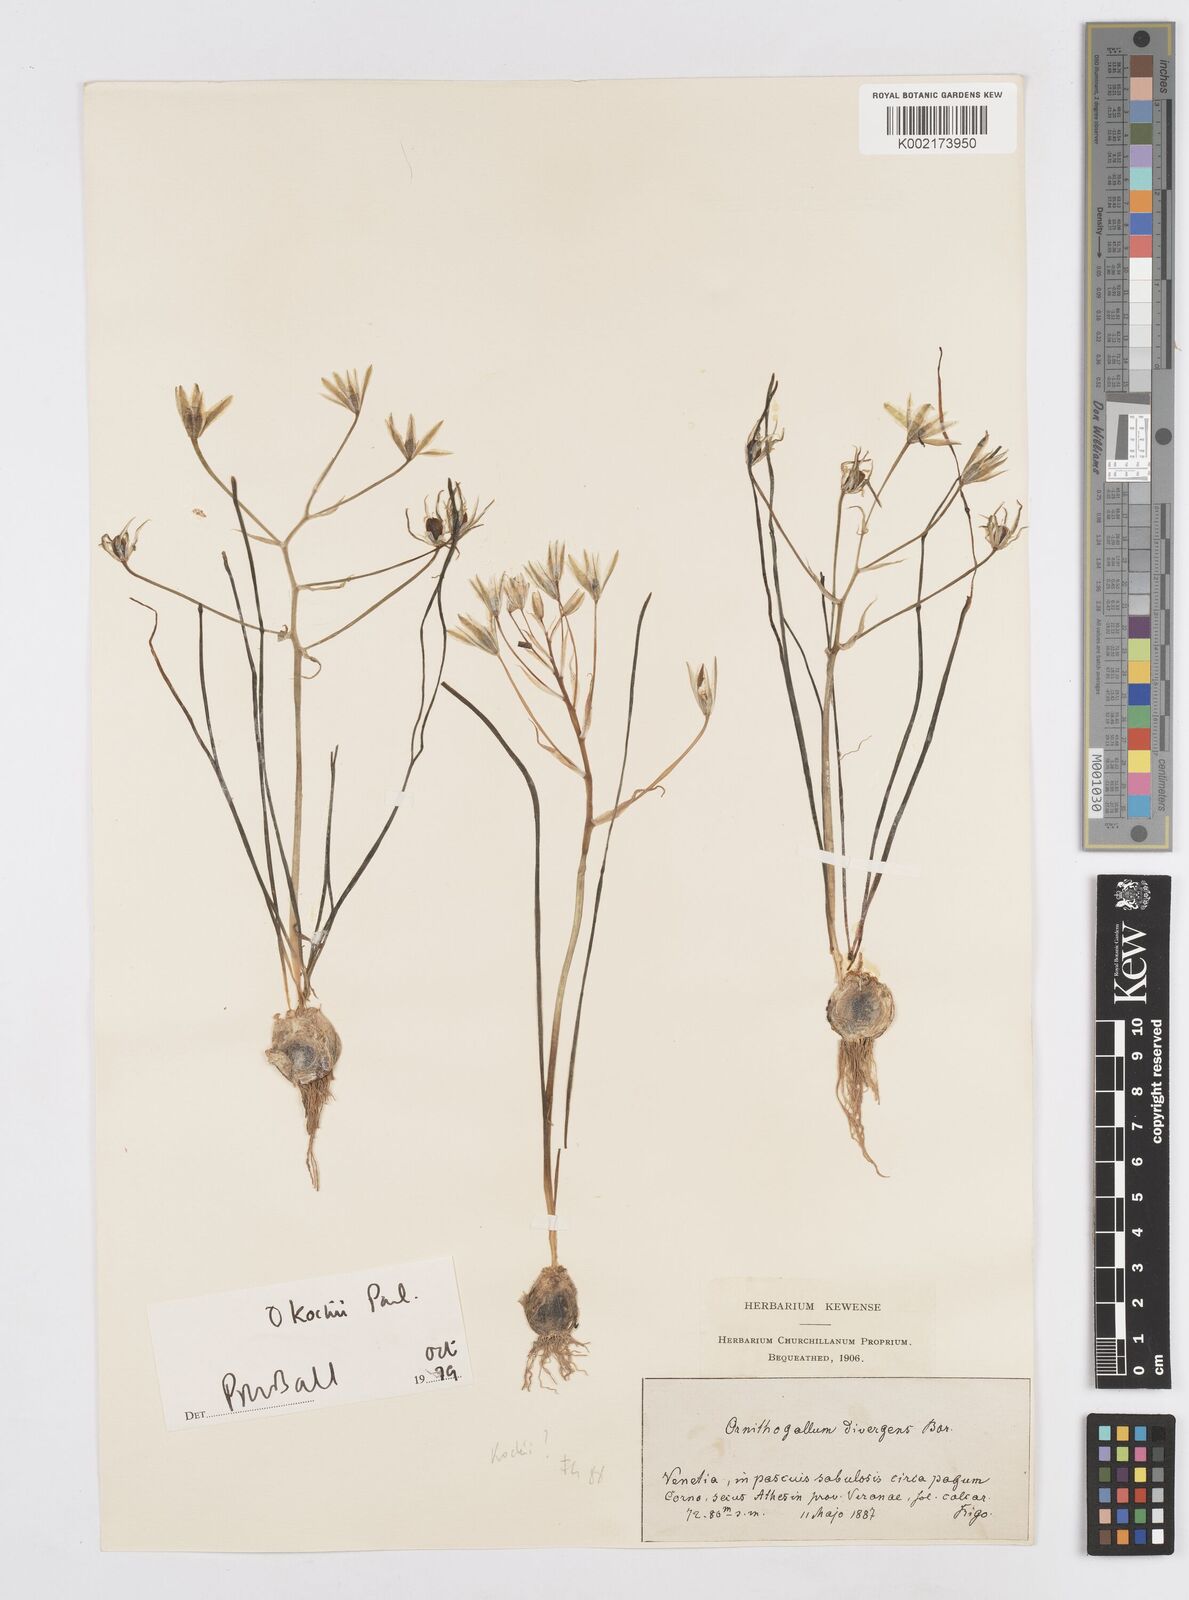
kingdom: Plantae
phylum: Tracheophyta
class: Liliopsida
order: Asparagales
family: Asparagaceae
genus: Ornithogalum
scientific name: Ornithogalum divergens
